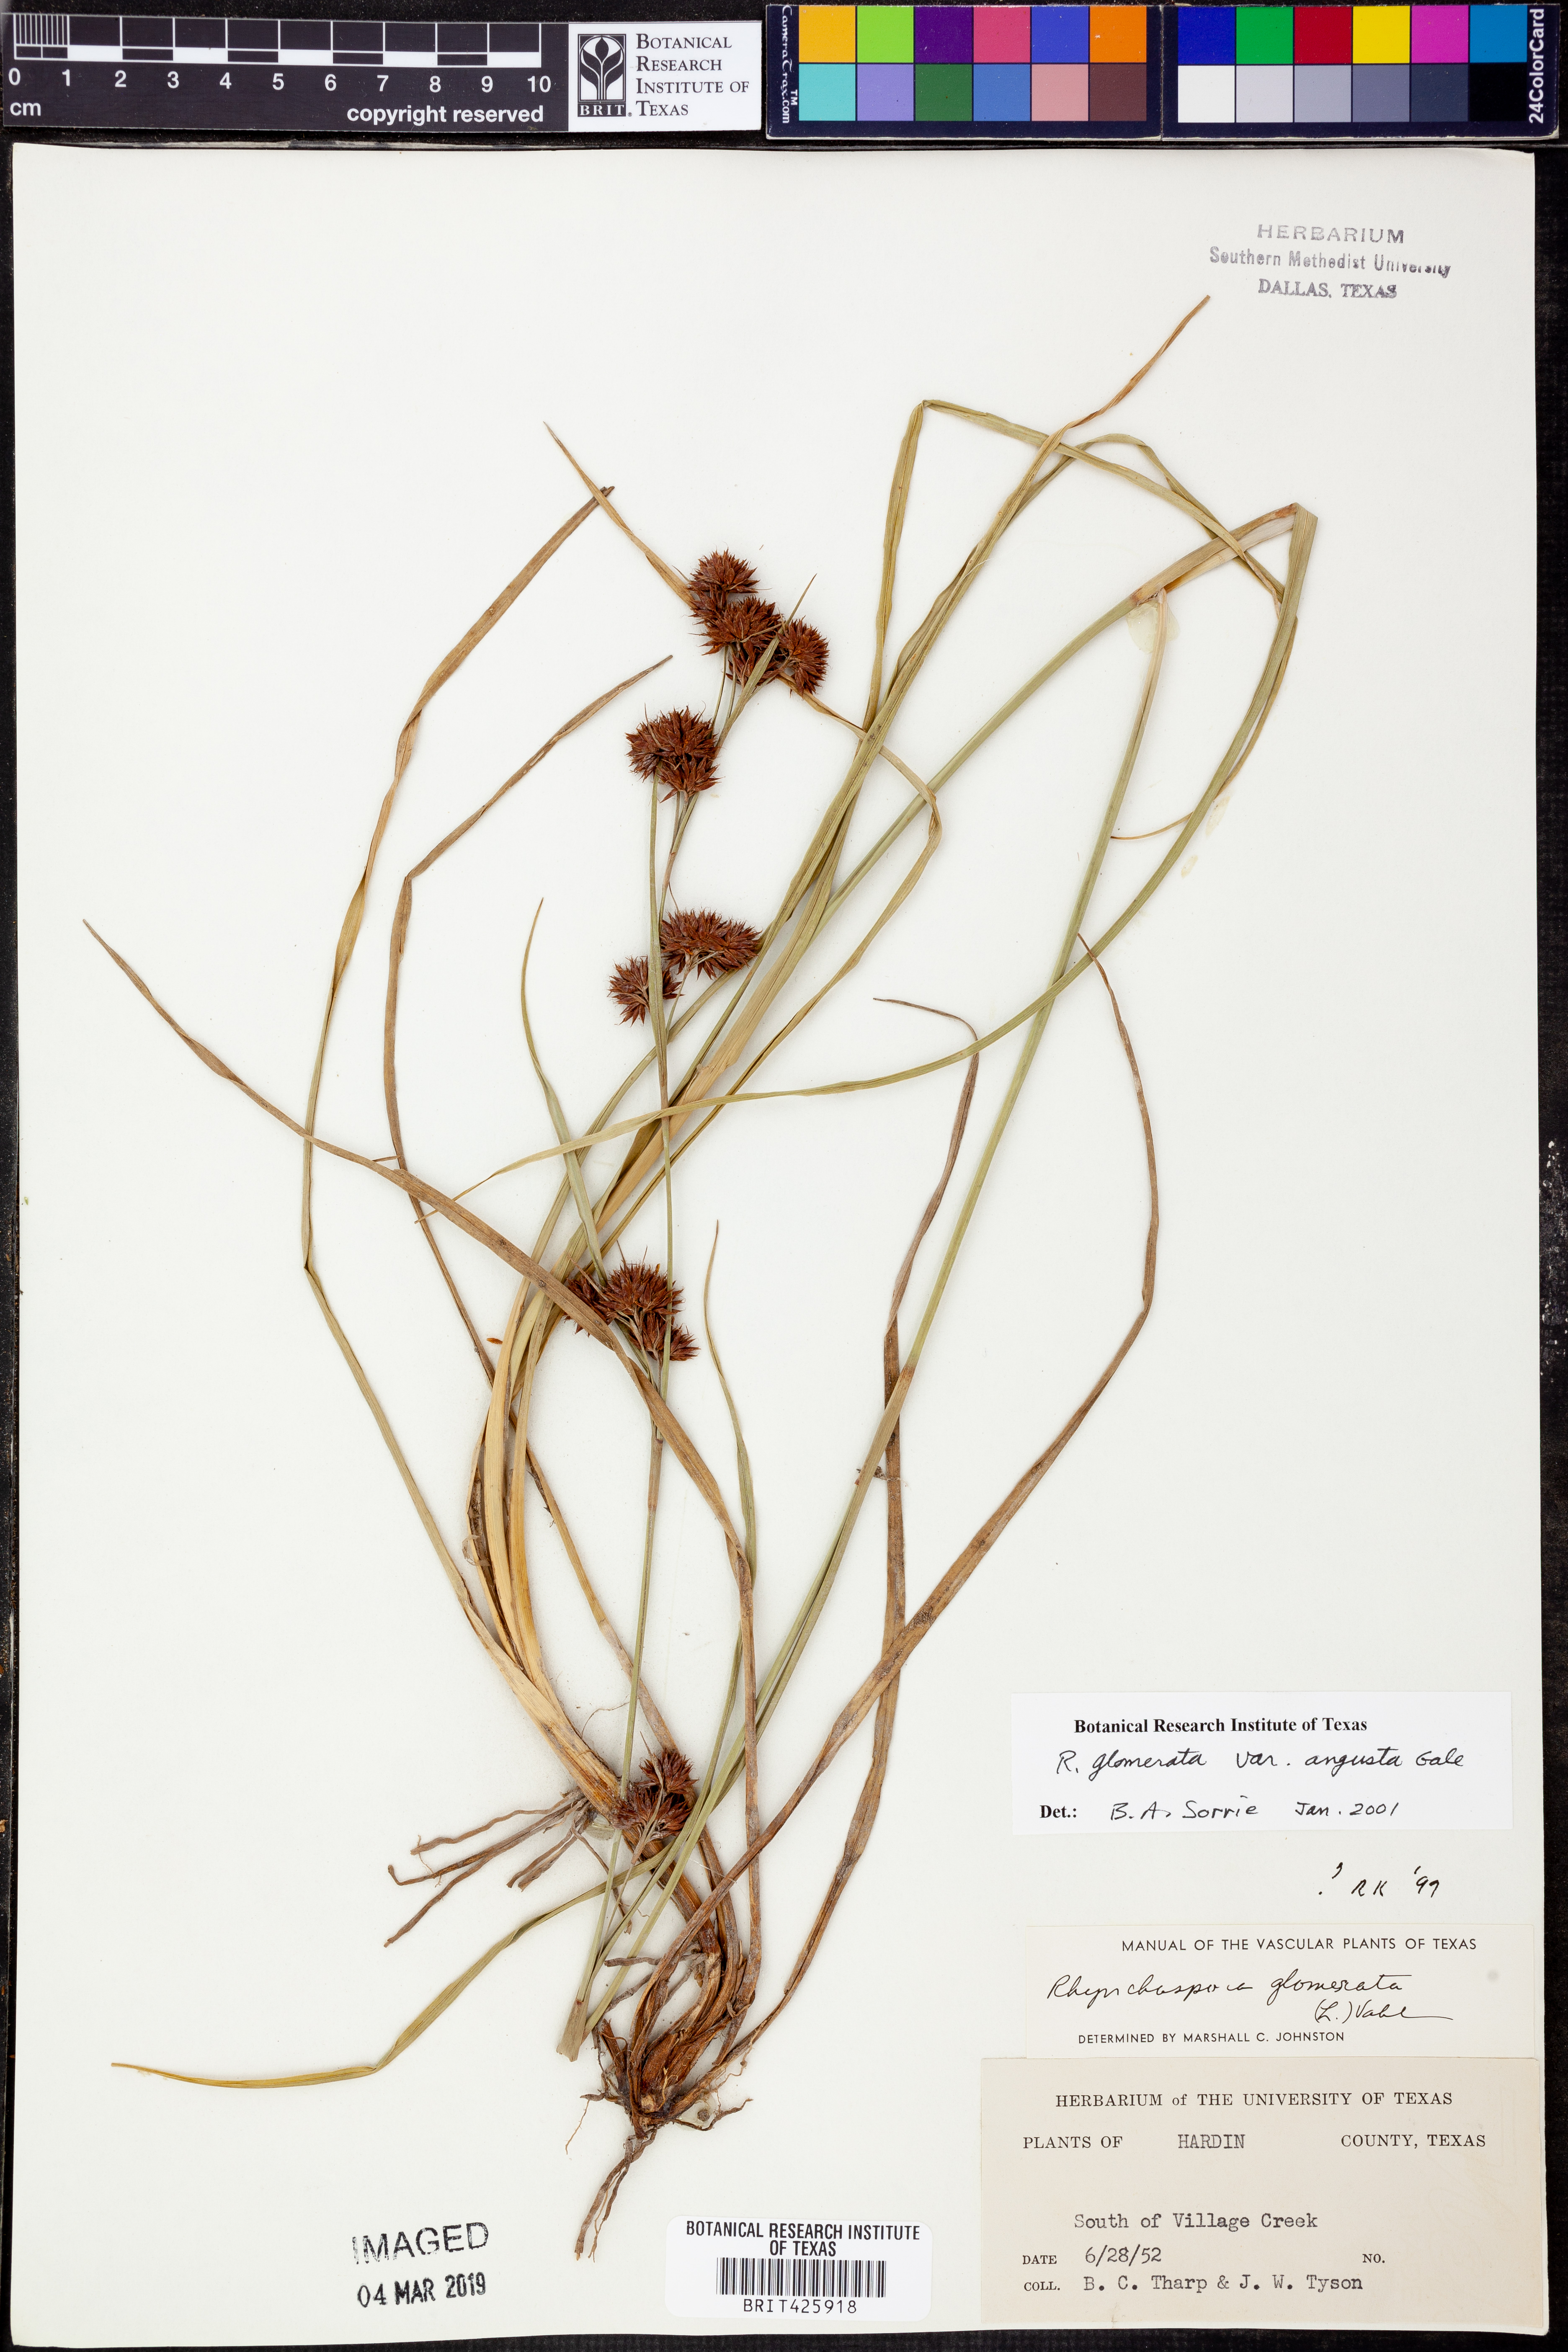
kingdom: Plantae
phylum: Tracheophyta
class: Liliopsida
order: Poales
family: Cyperaceae
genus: Rhynchospora
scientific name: Rhynchospora angusta
